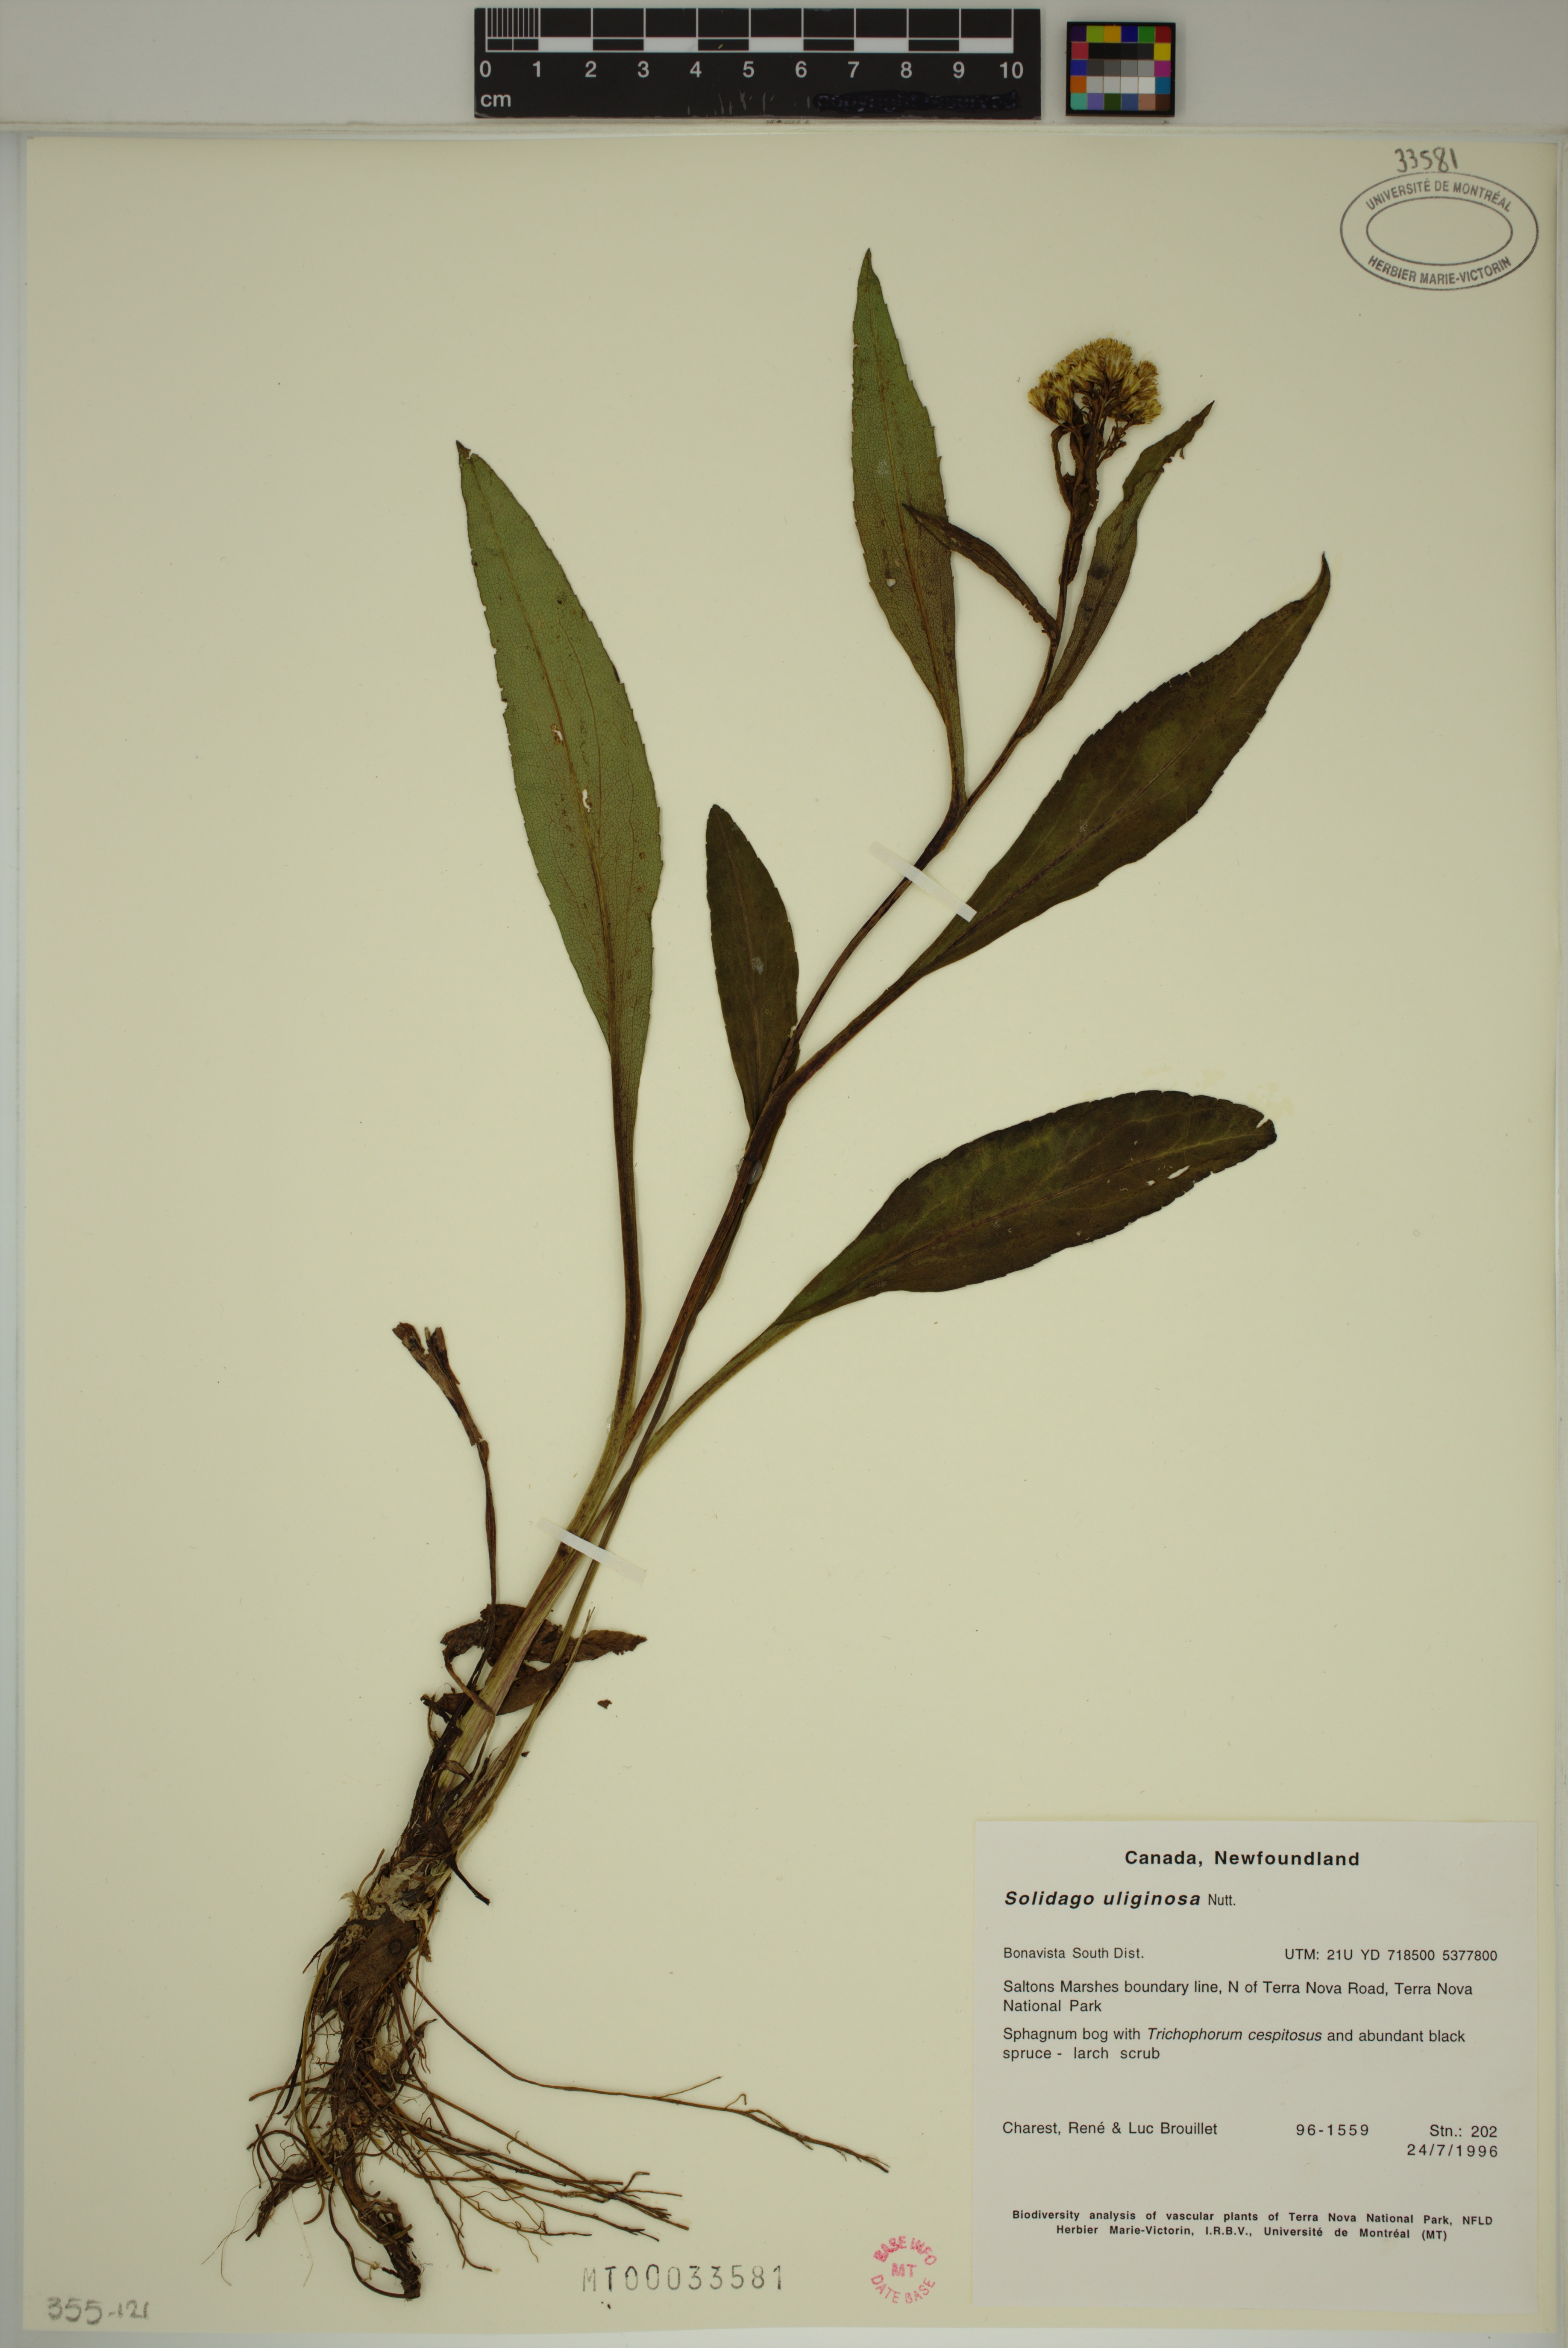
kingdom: Plantae
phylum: Tracheophyta
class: Magnoliopsida
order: Asterales
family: Asteraceae
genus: Solidago
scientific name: Solidago uliginosa
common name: Bog goldenrod
